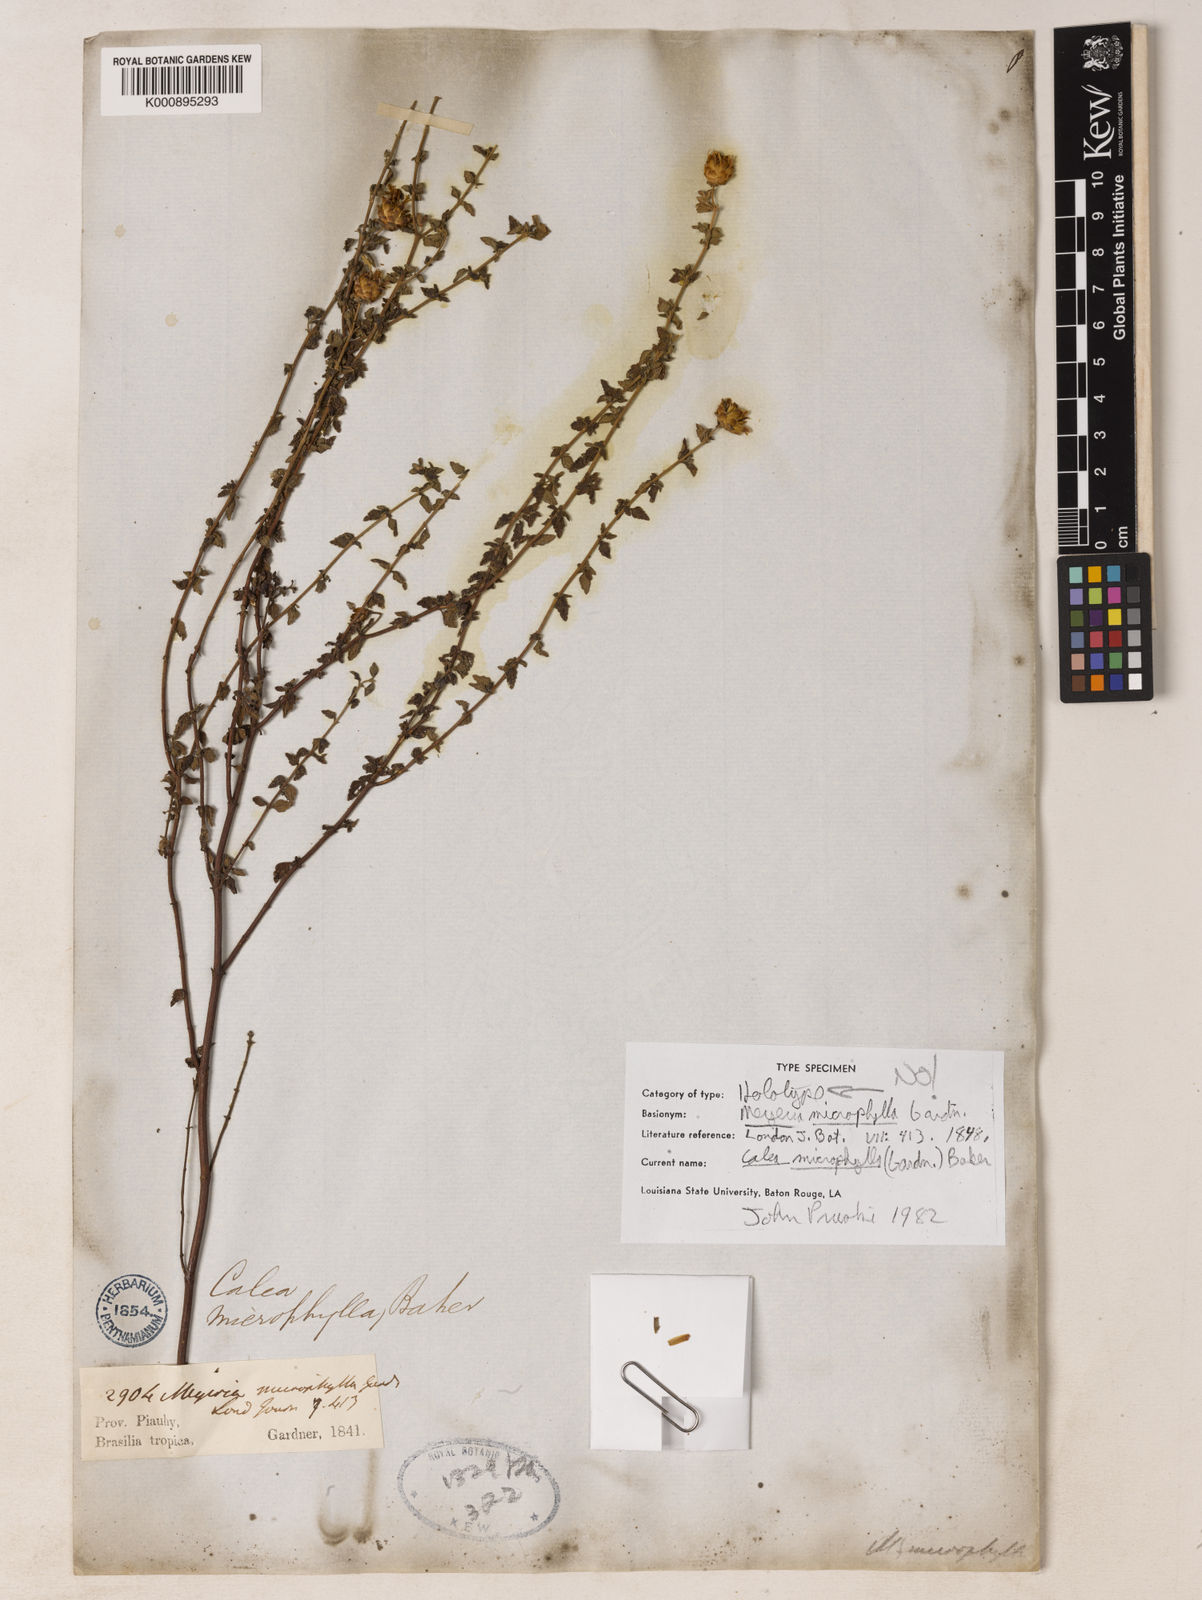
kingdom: Plantae
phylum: Tracheophyta
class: Magnoliopsida
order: Asterales
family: Asteraceae
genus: Calea
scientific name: Calea microphylla
